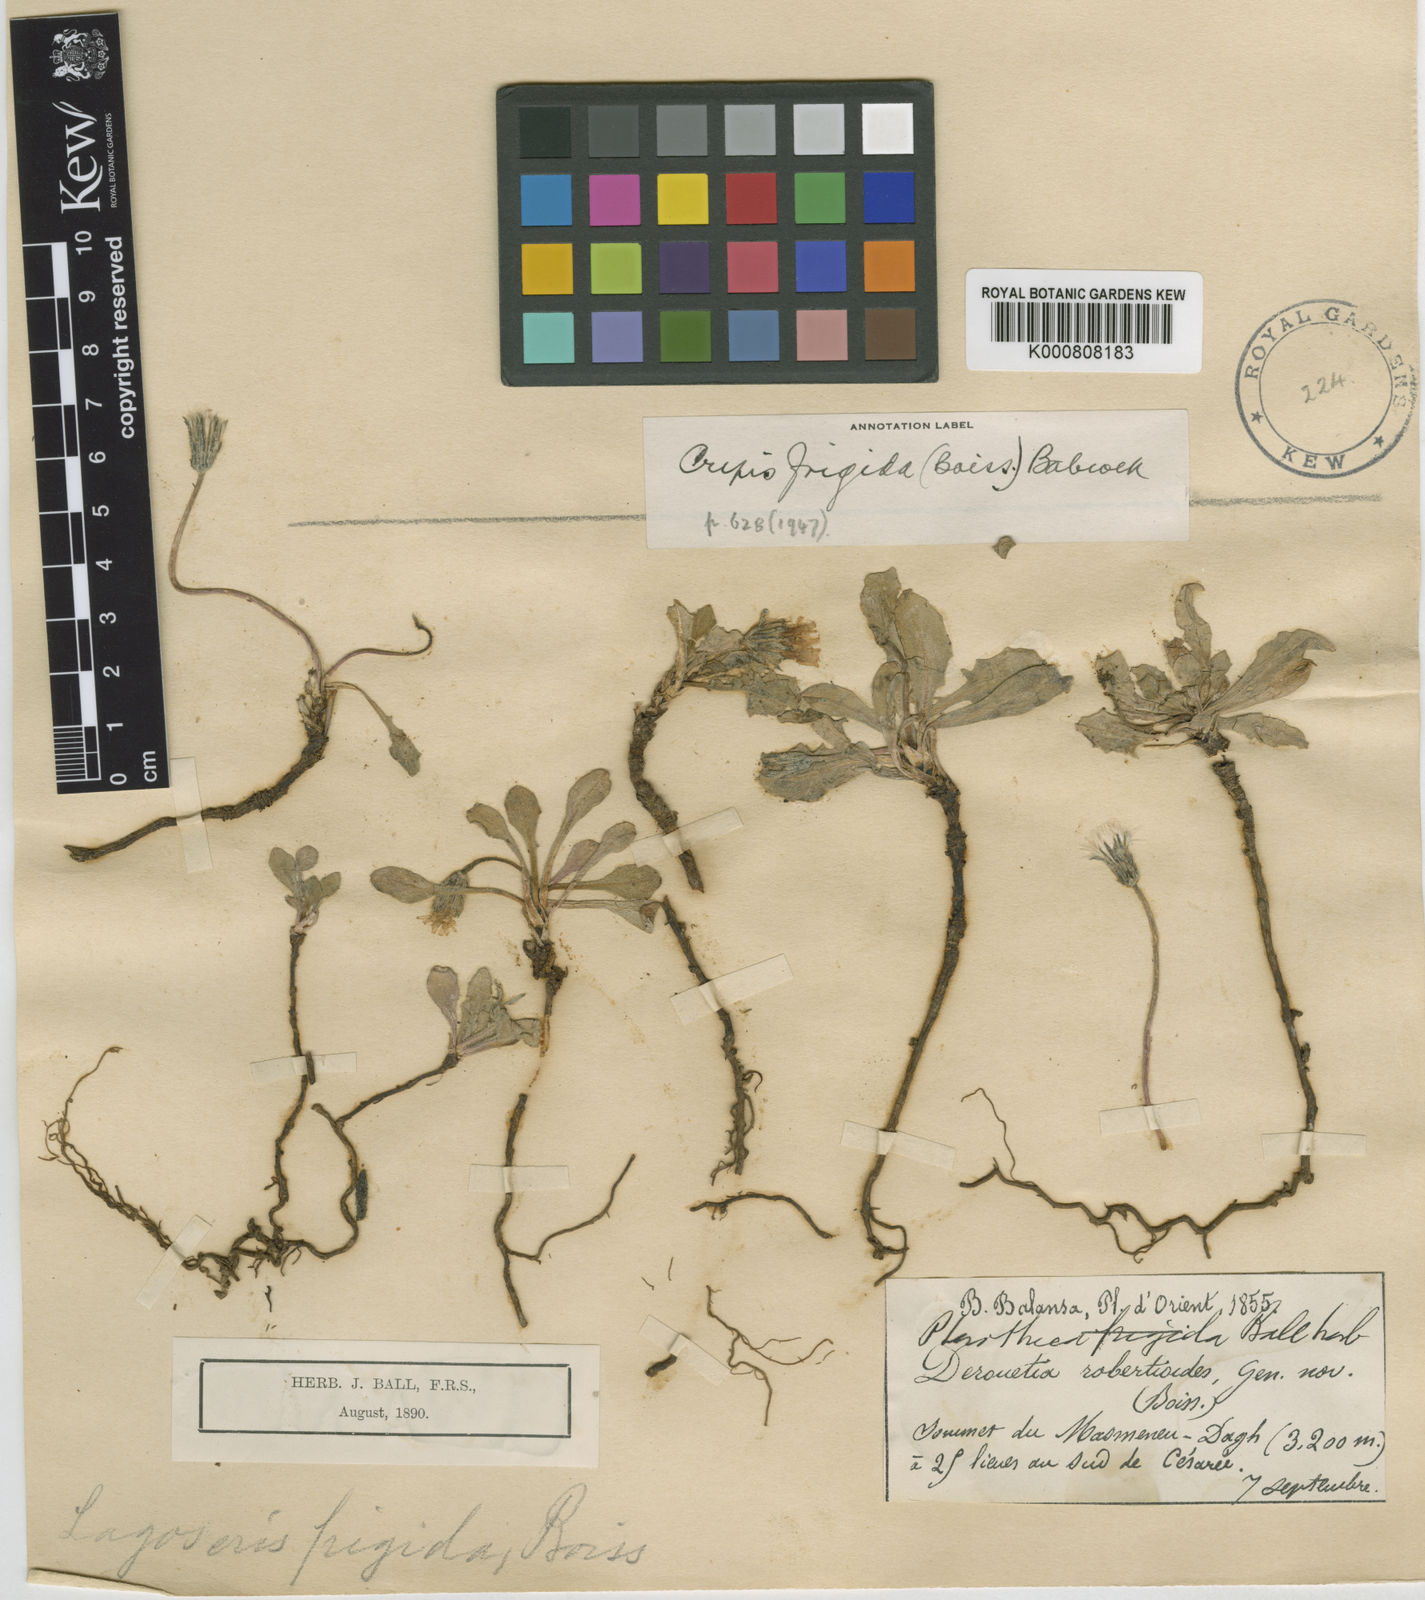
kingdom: Plantae
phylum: Tracheophyta
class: Magnoliopsida
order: Asterales
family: Asteraceae
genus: Crepis
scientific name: Crepis frigida
